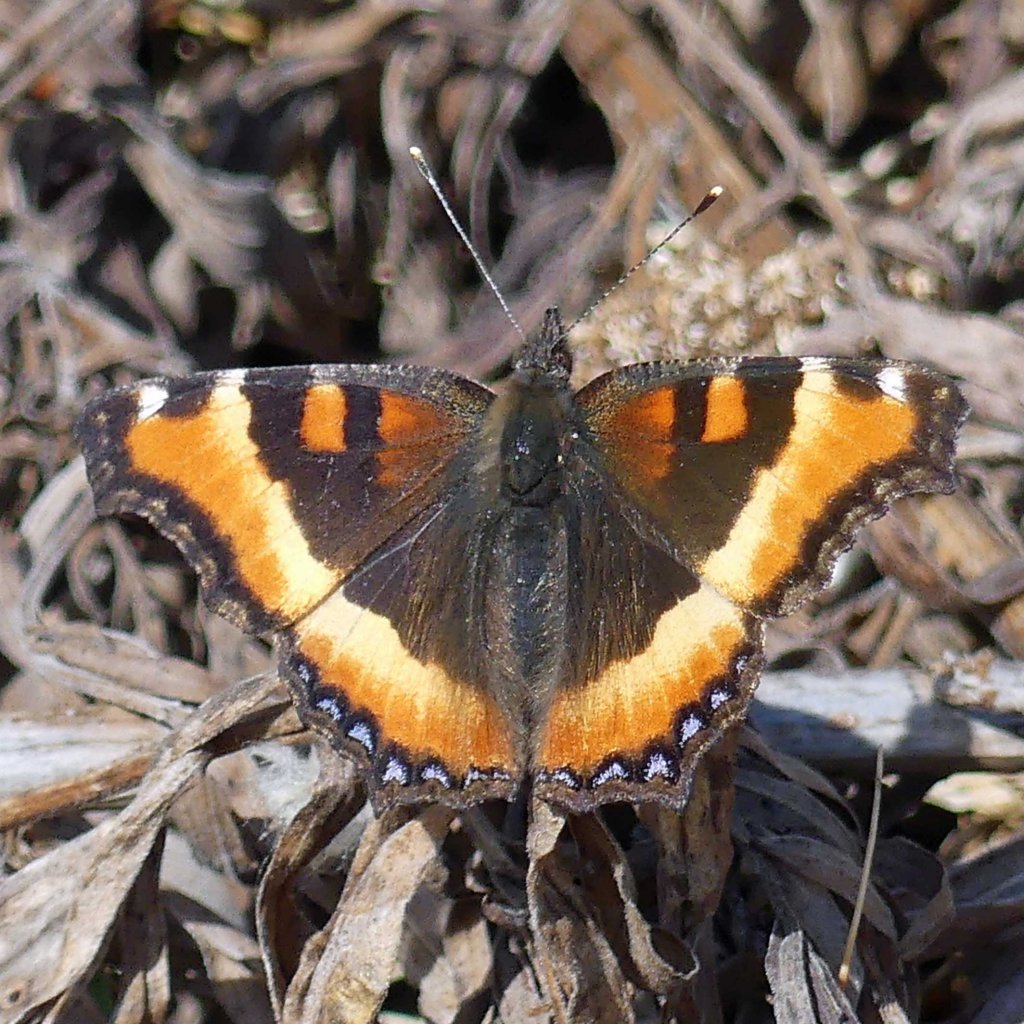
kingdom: Animalia
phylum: Arthropoda
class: Insecta
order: Lepidoptera
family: Nymphalidae
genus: Aglais
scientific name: Aglais milberti
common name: Milbert's Tortoiseshell
